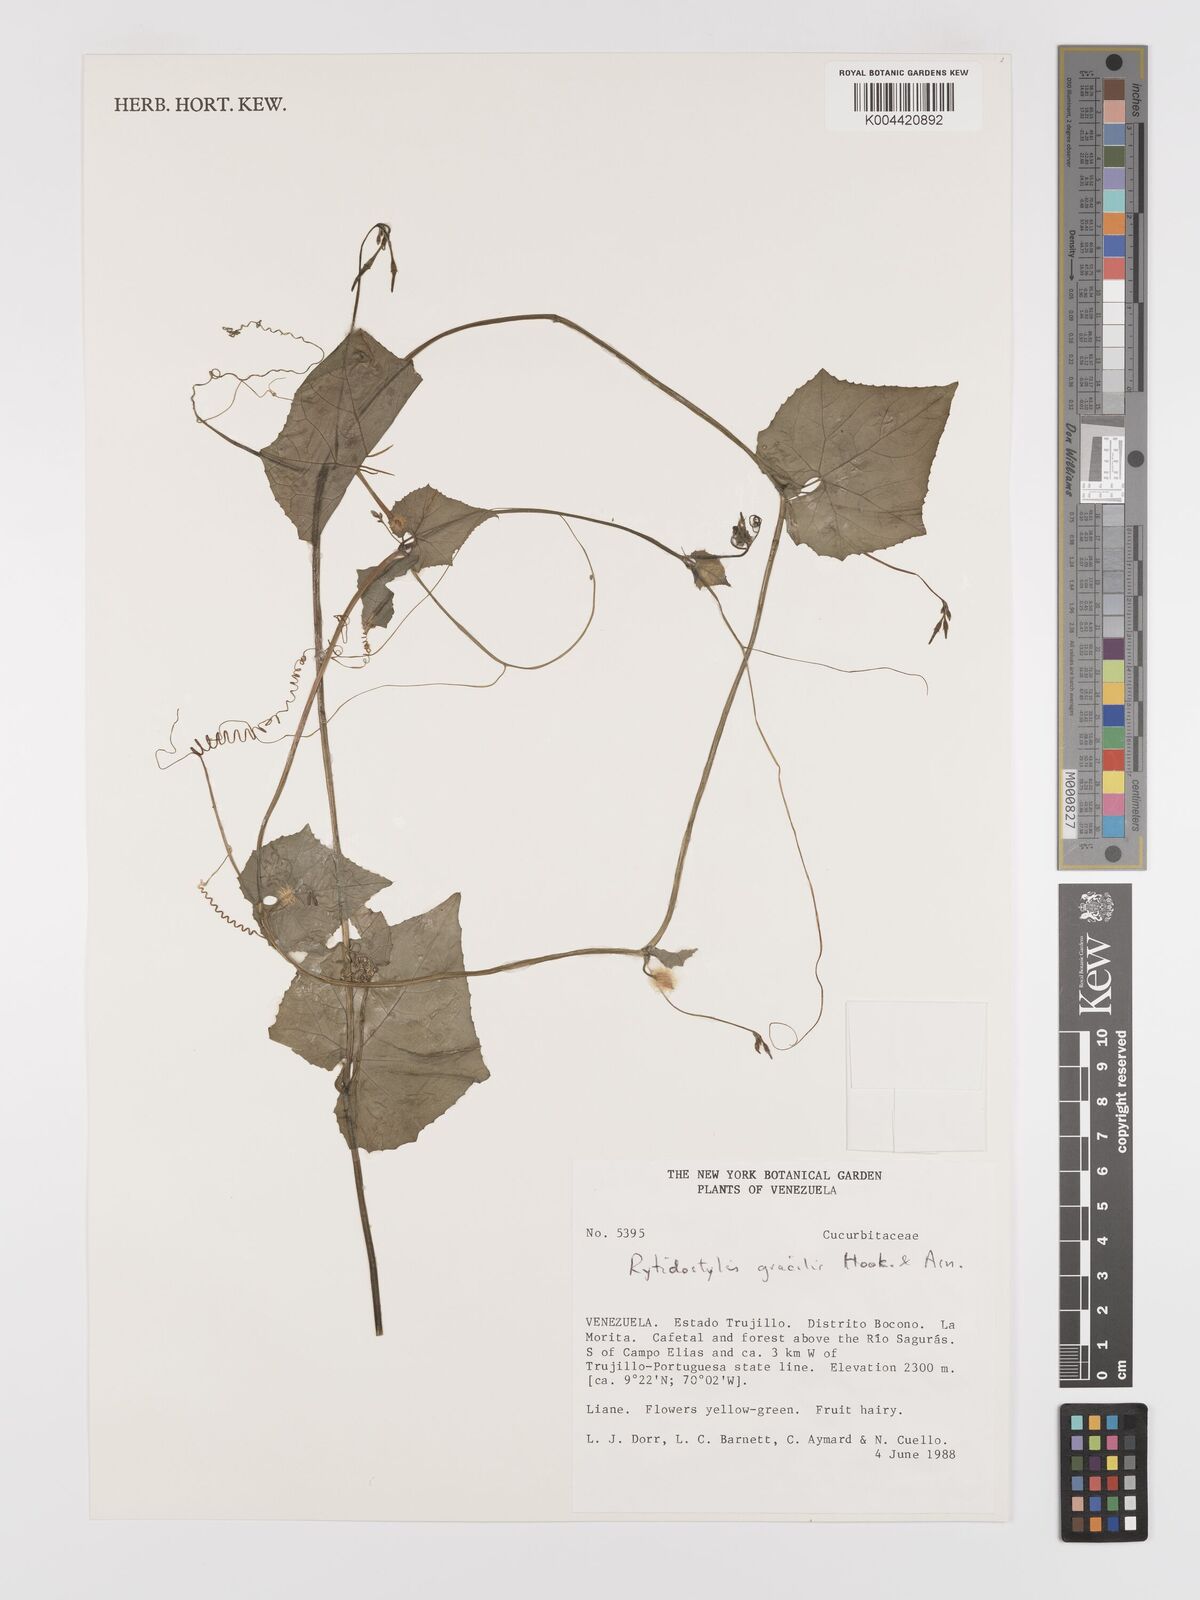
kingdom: Plantae
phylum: Tracheophyta
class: Magnoliopsida
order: Cucurbitales
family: Cucurbitaceae
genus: Cyclanthera
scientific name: Cyclanthera filiformis
